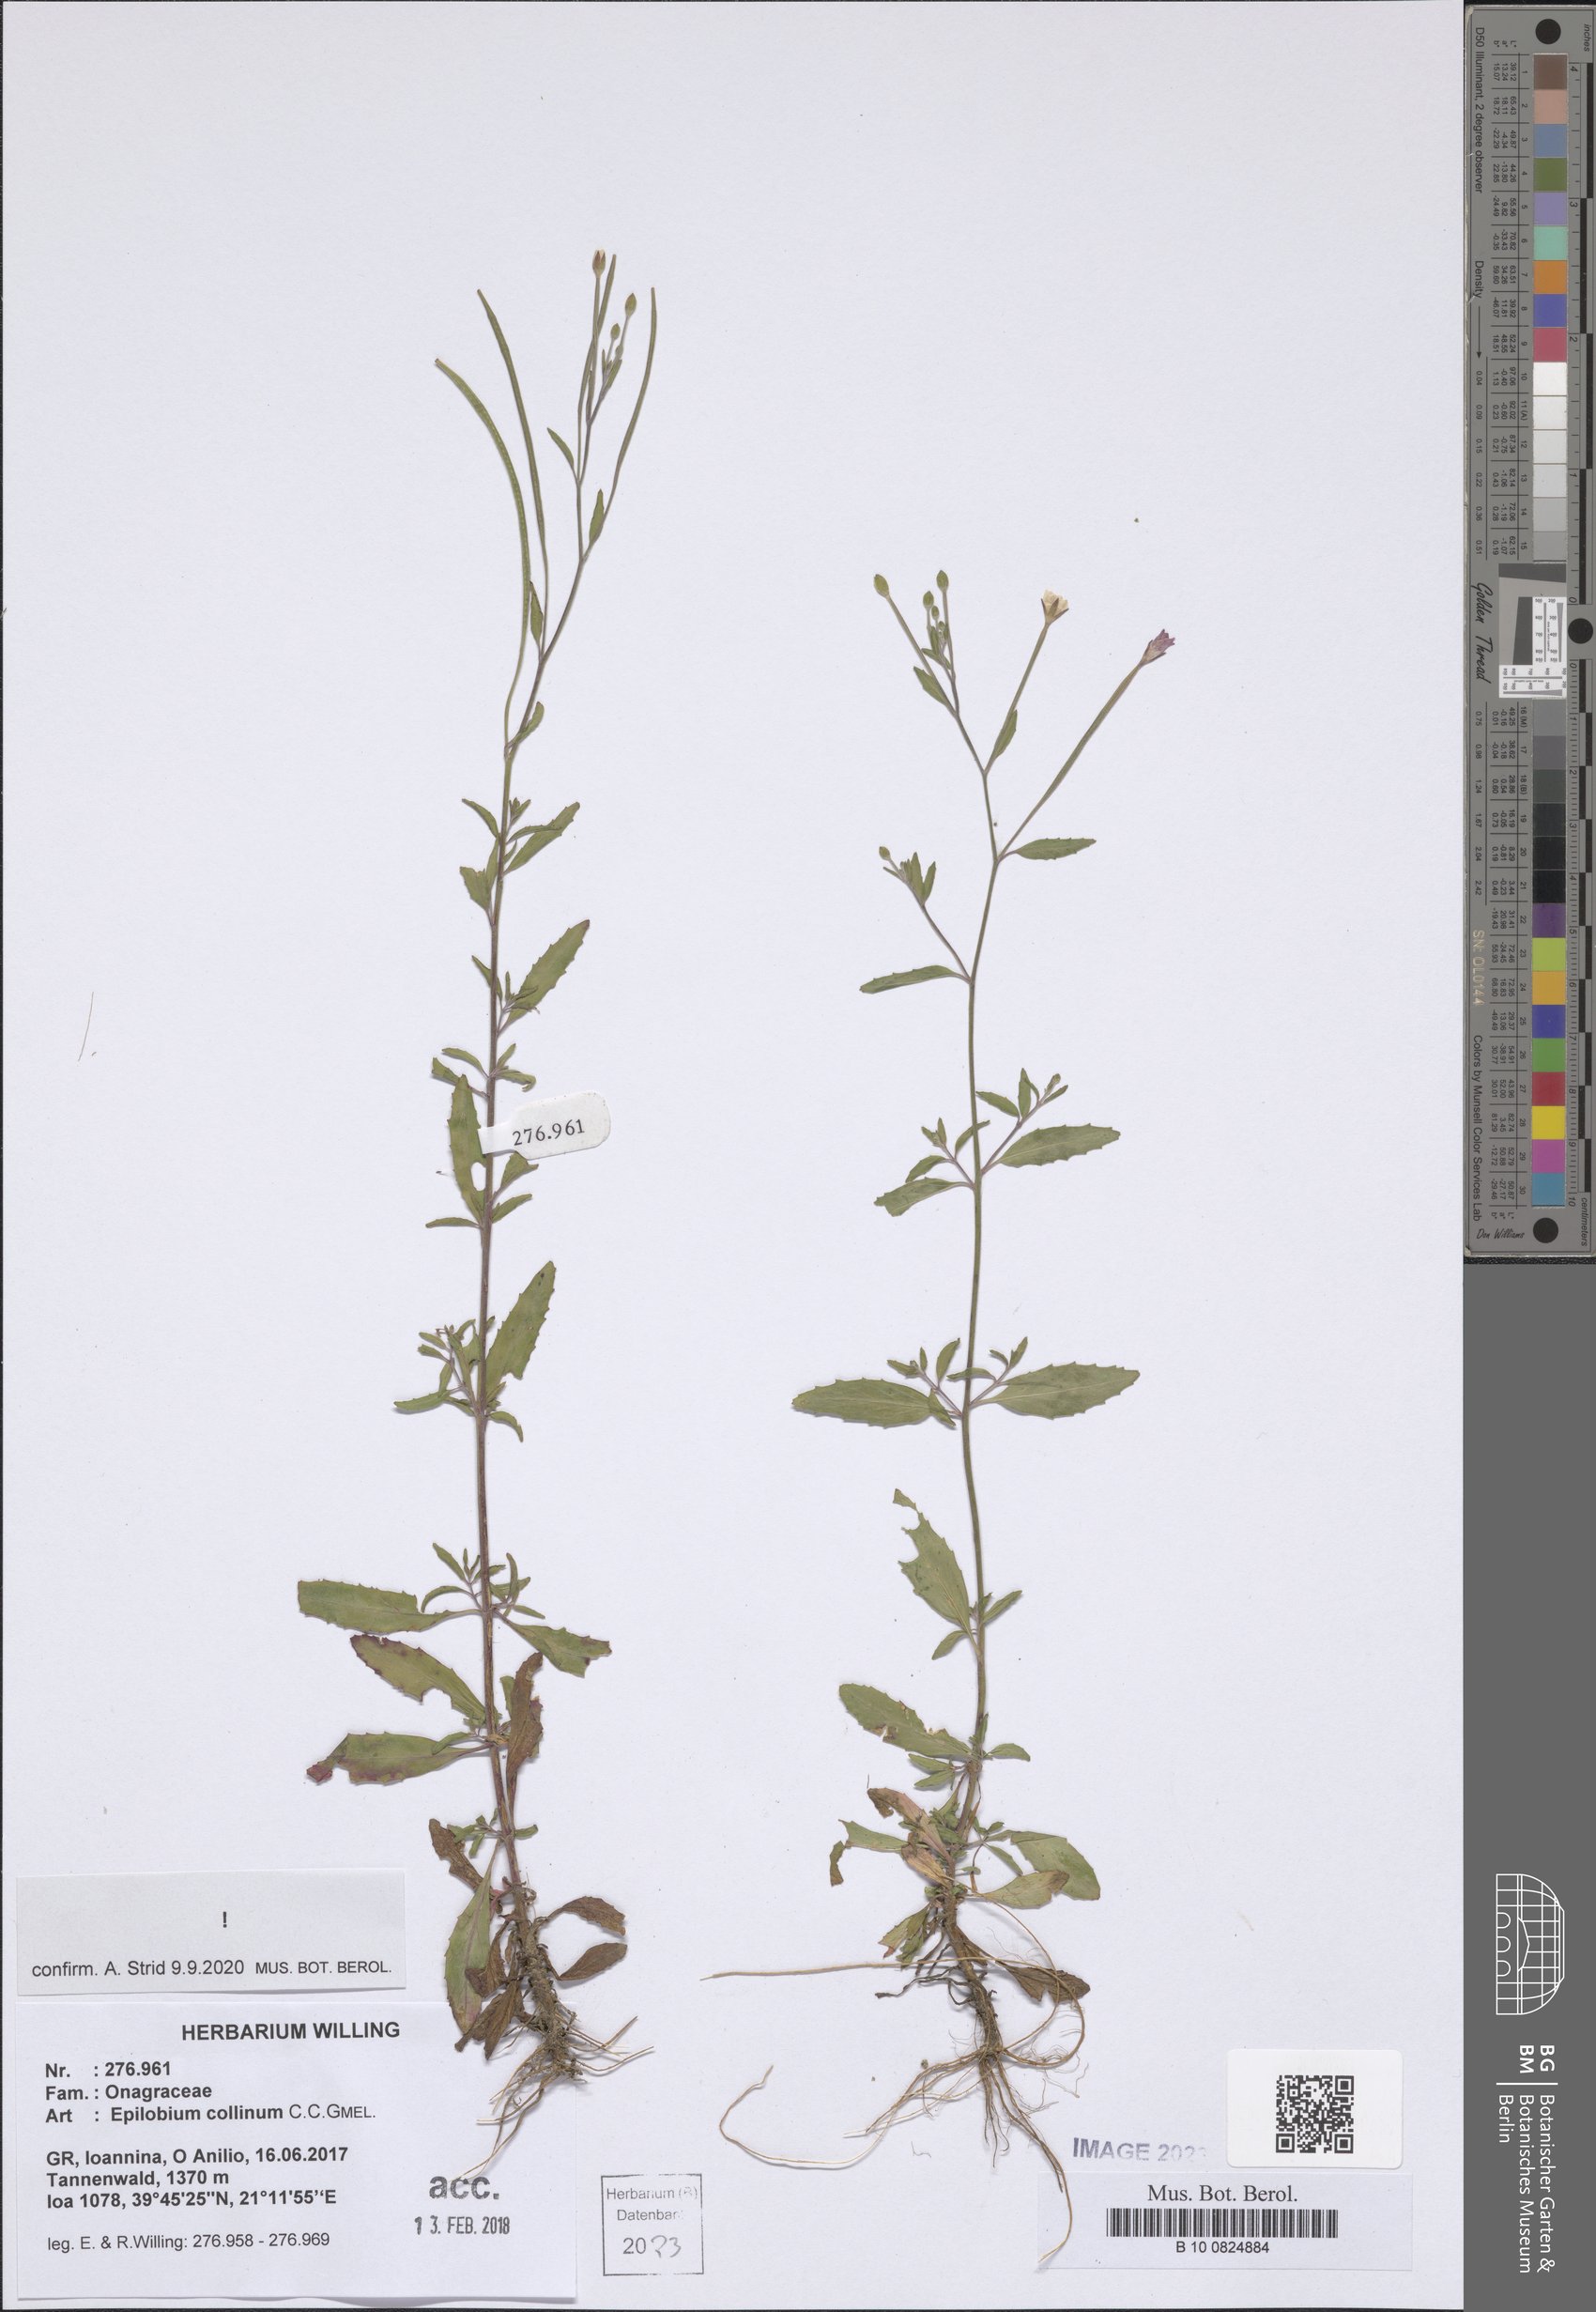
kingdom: Plantae
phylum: Tracheophyta
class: Magnoliopsida
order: Myrtales
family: Onagraceae
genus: Epilobium
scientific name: Epilobium collinum
